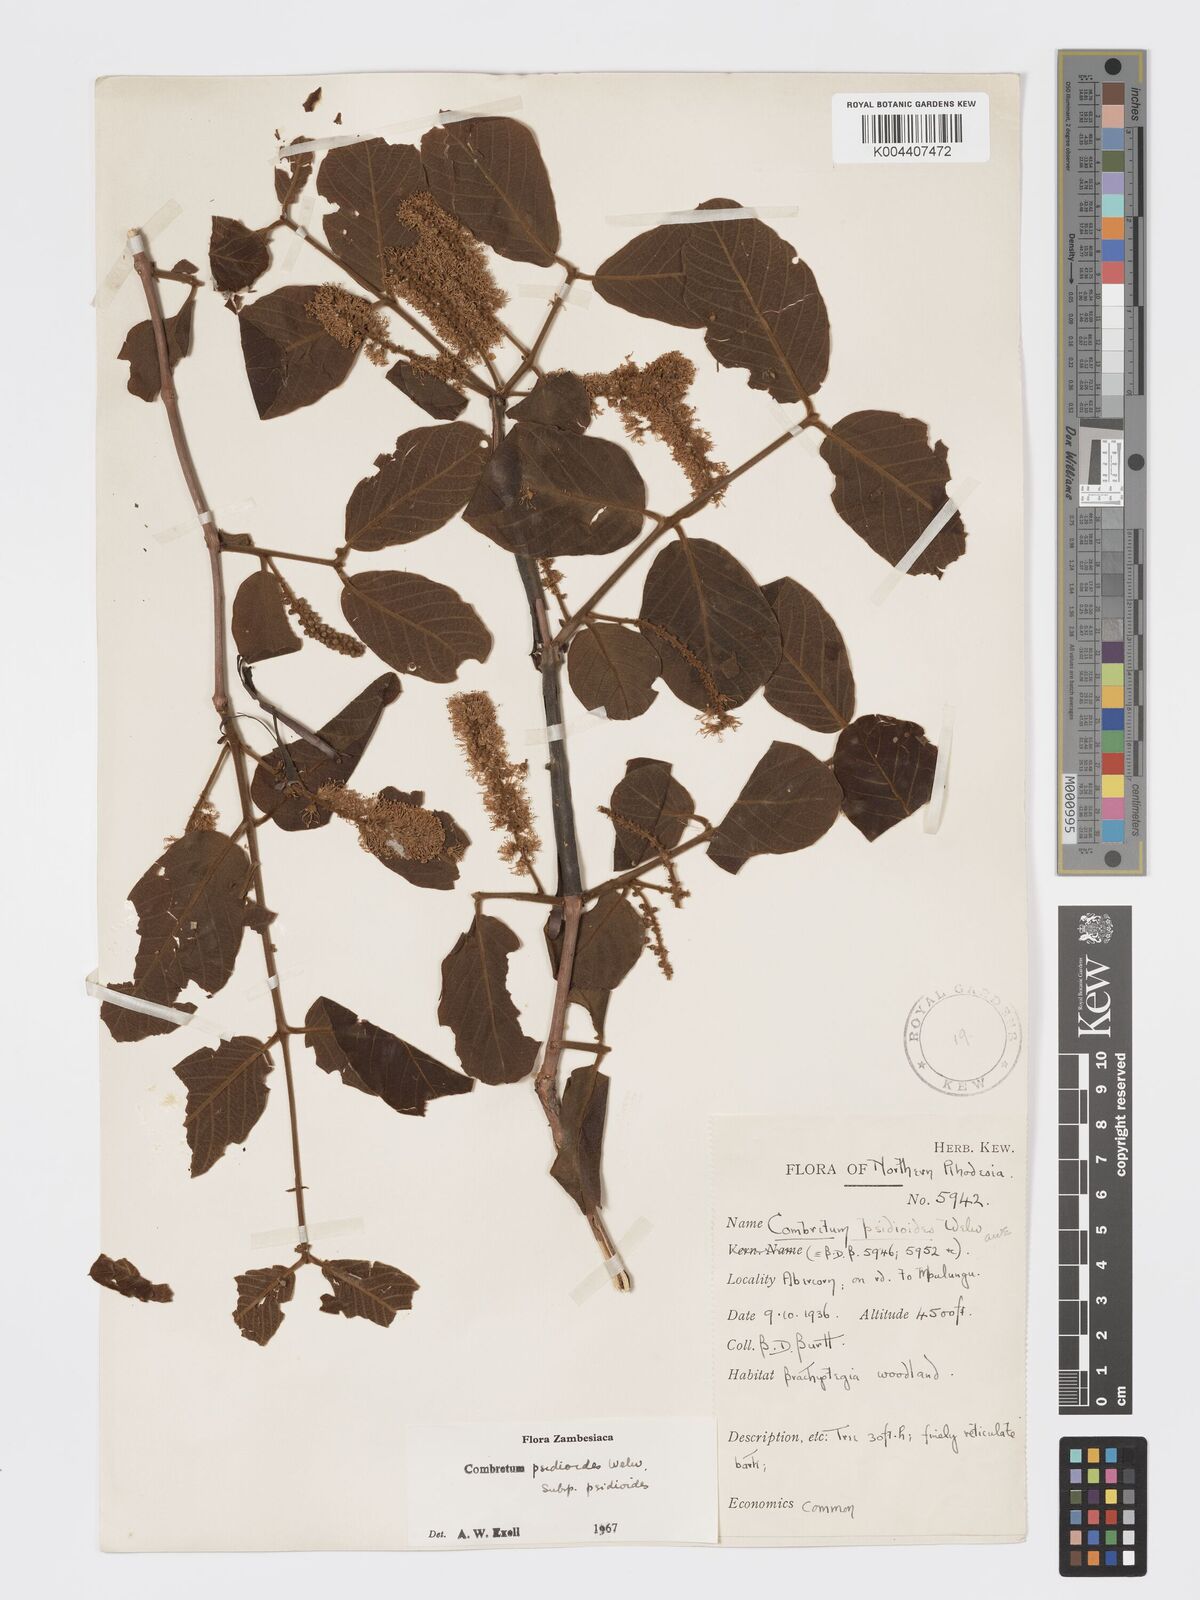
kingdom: Plantae
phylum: Tracheophyta
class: Magnoliopsida
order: Myrtales
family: Combretaceae
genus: Combretum
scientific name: Combretum psidioides
